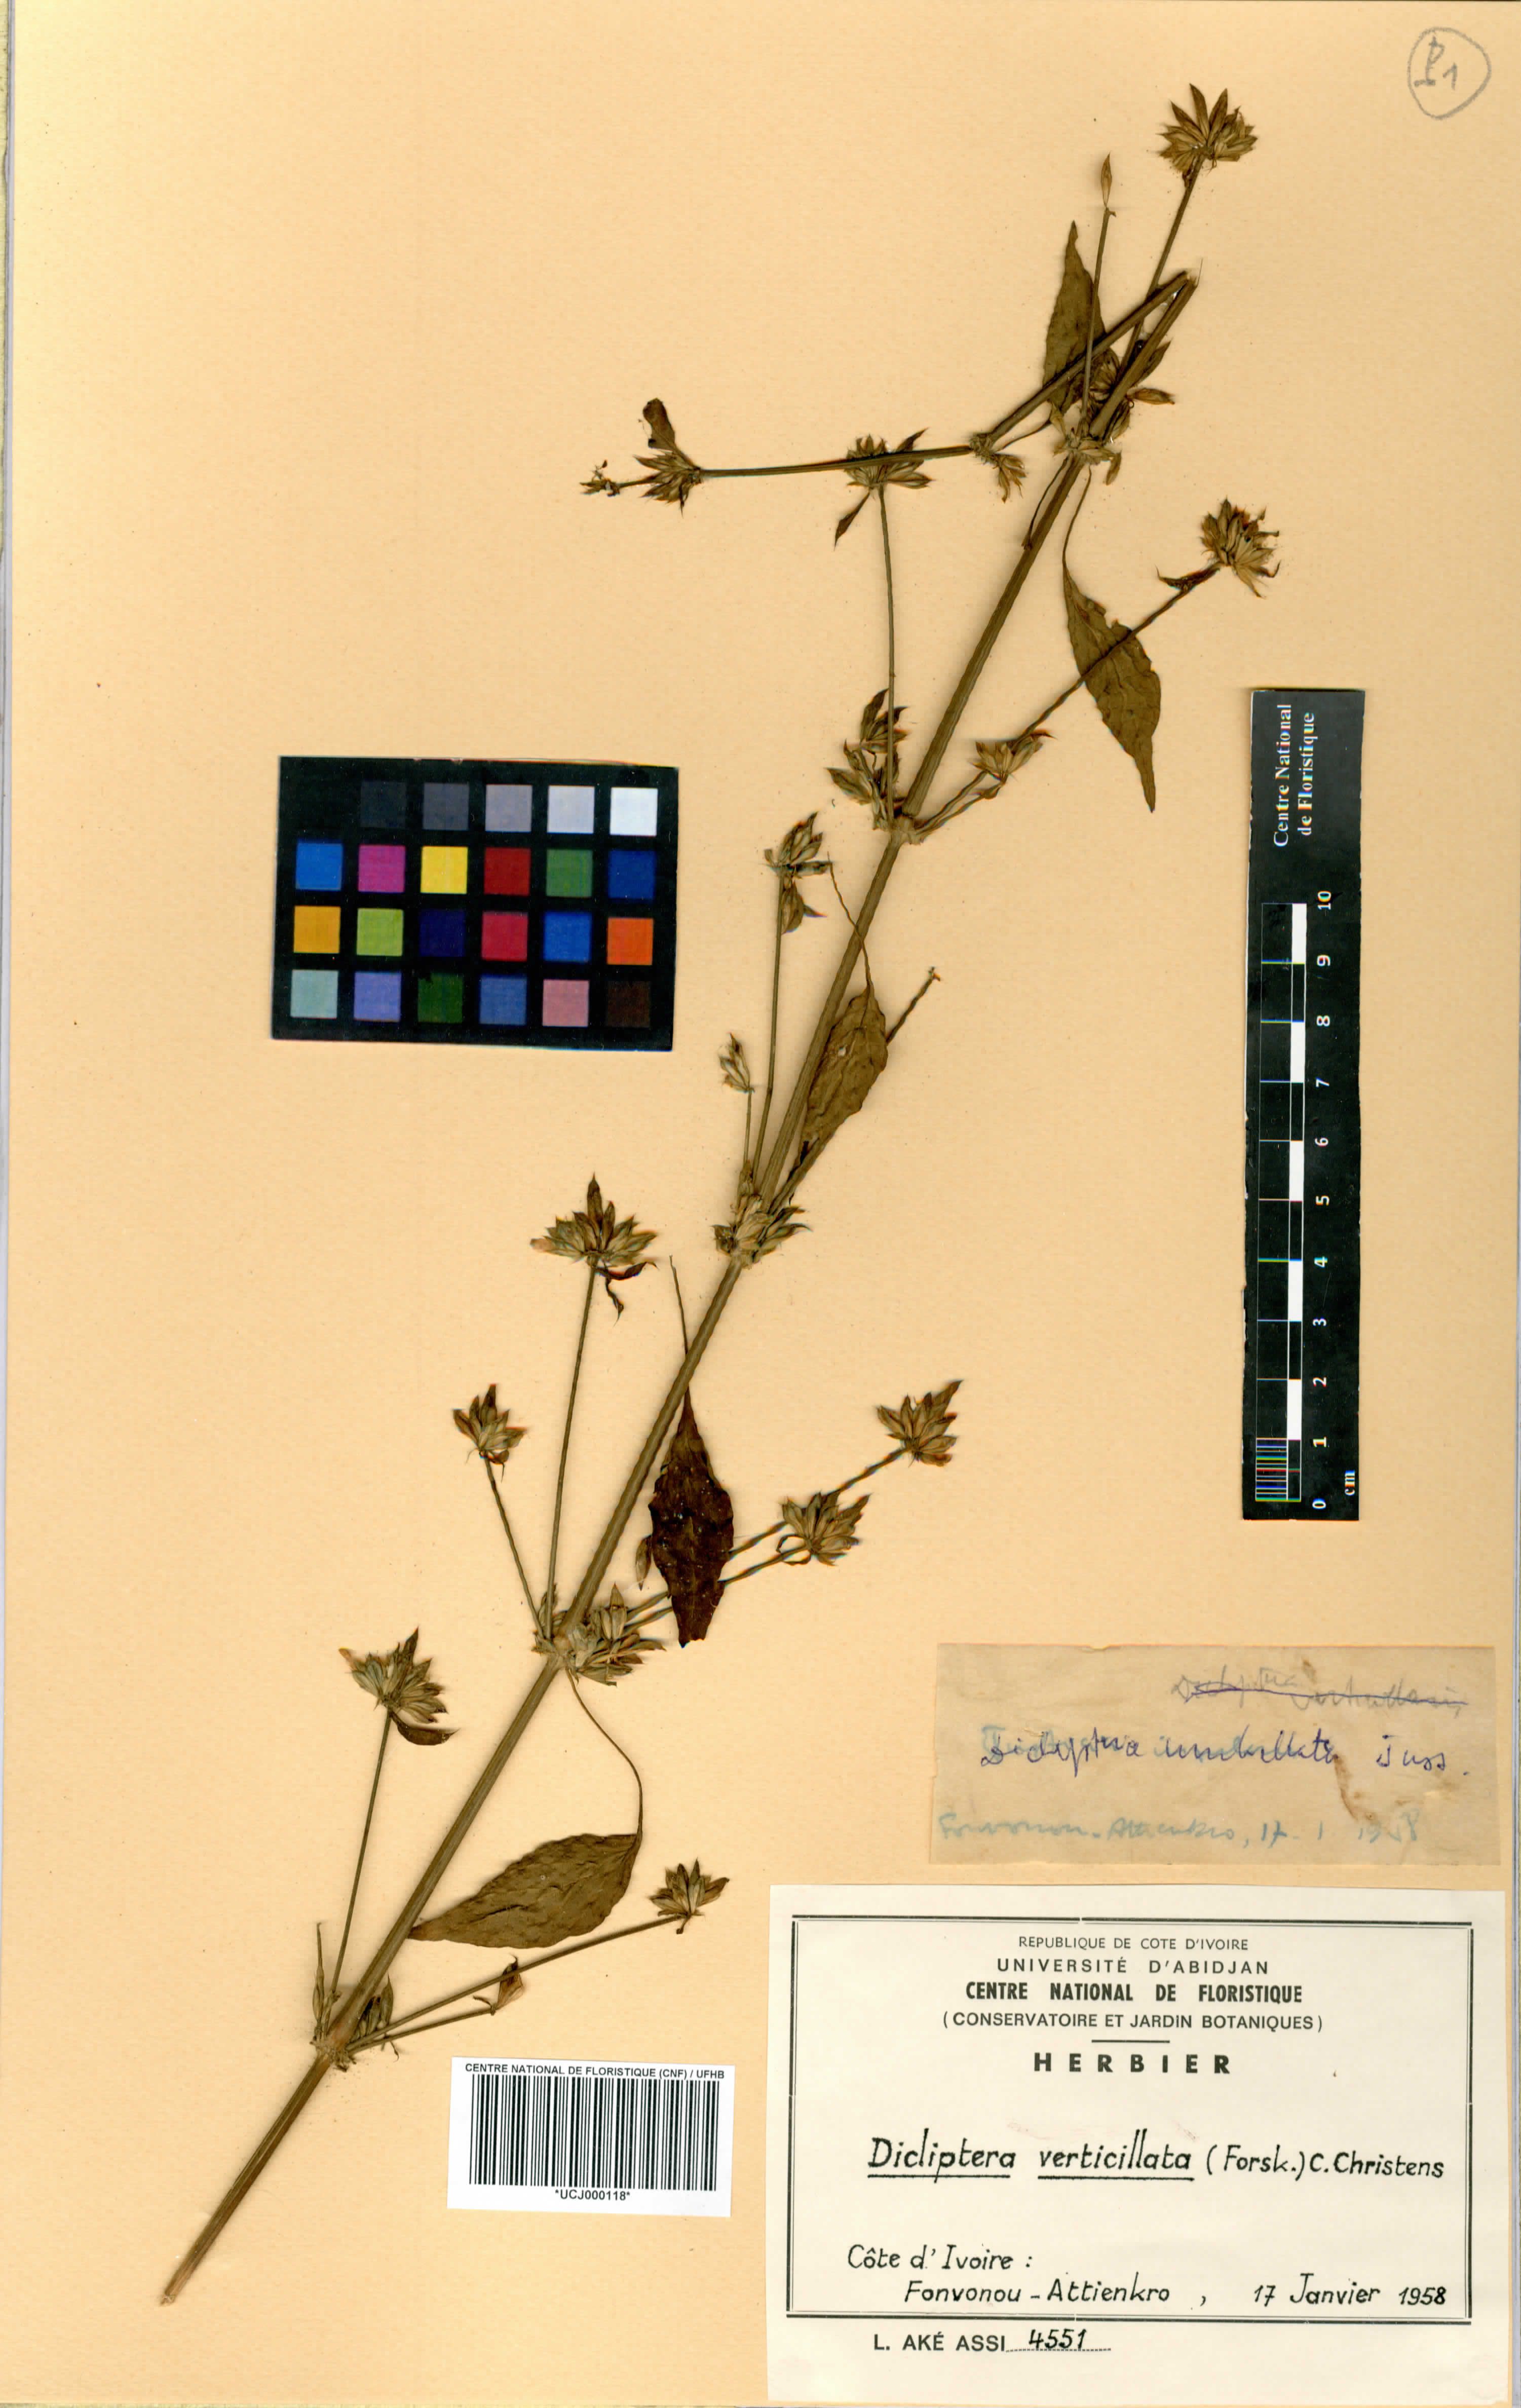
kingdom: Plantae
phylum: Tracheophyta
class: Magnoliopsida
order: Lamiales
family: Acanthaceae
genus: Dicliptera
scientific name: Dicliptera verticillata
